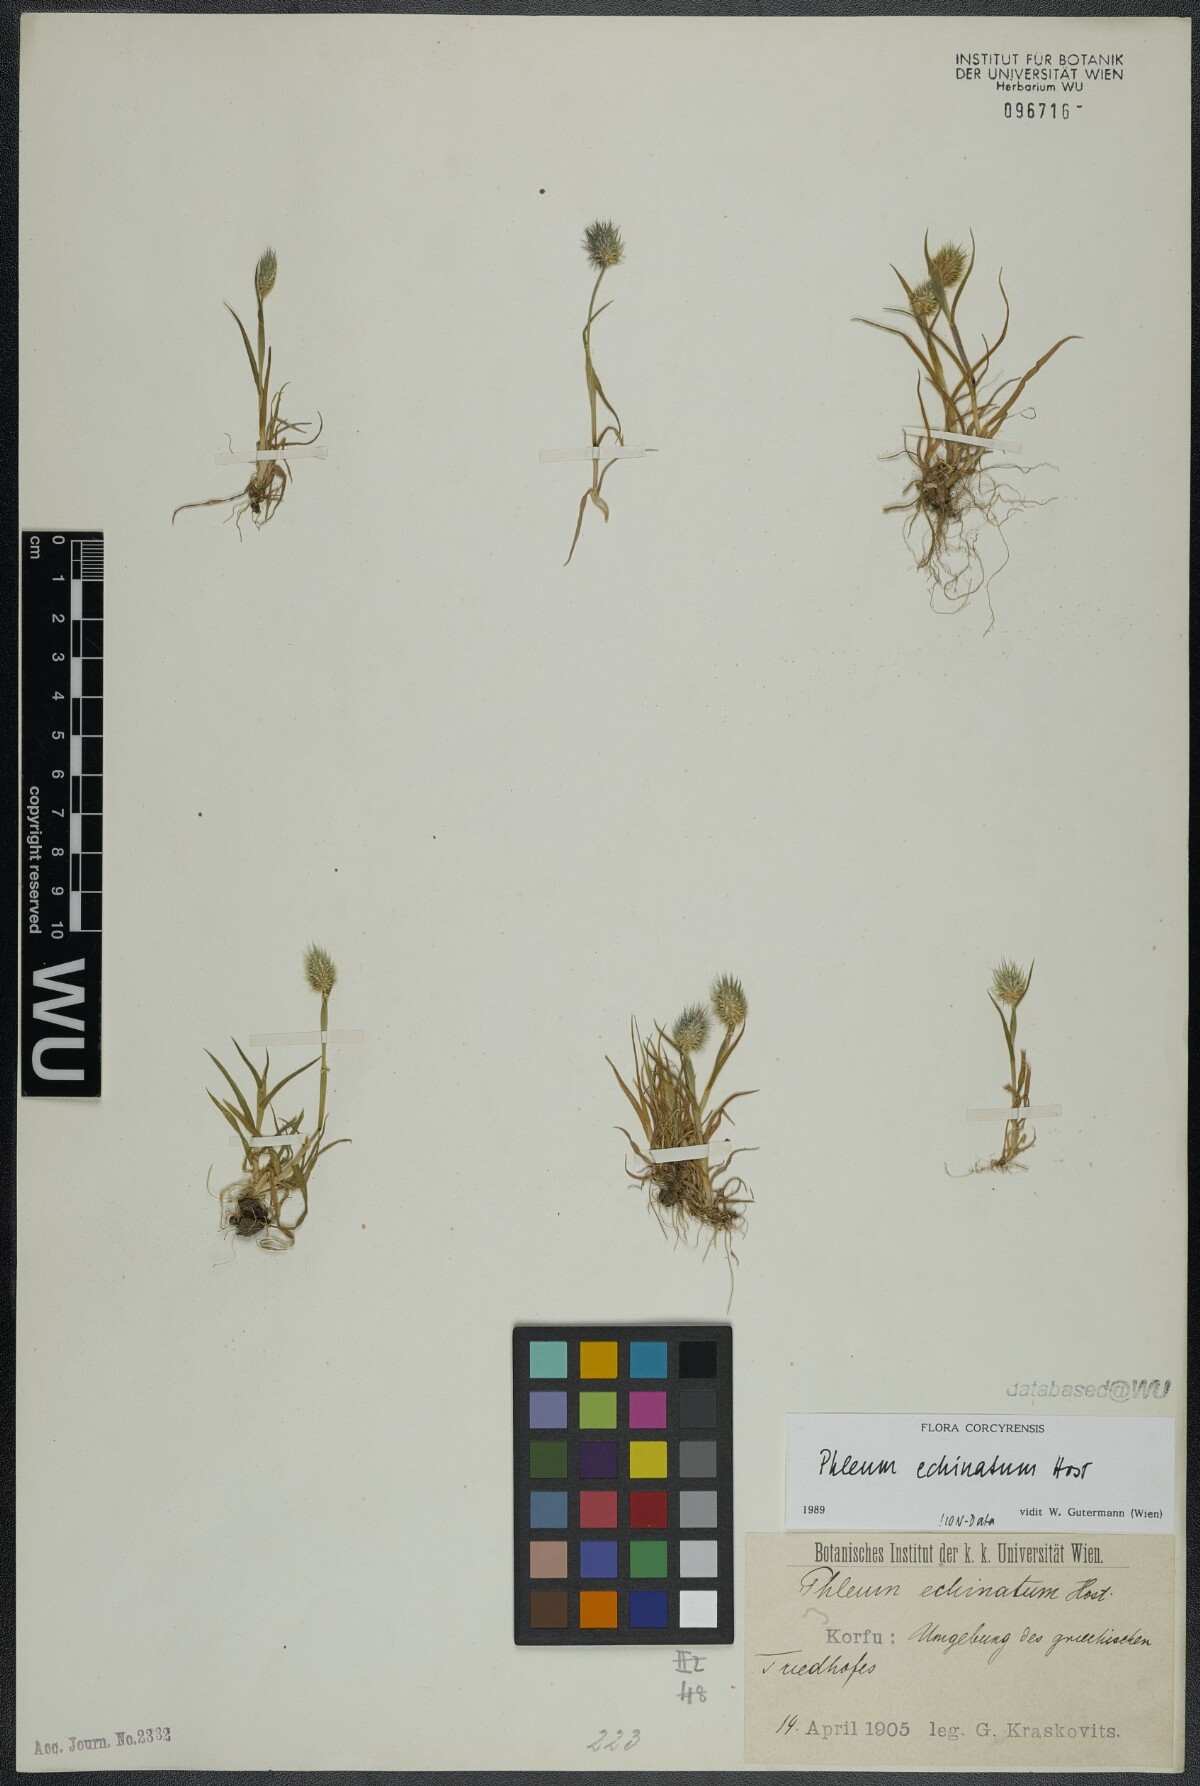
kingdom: Plantae
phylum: Tracheophyta
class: Liliopsida
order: Poales
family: Poaceae
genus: Phleum
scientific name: Phleum echinatum
